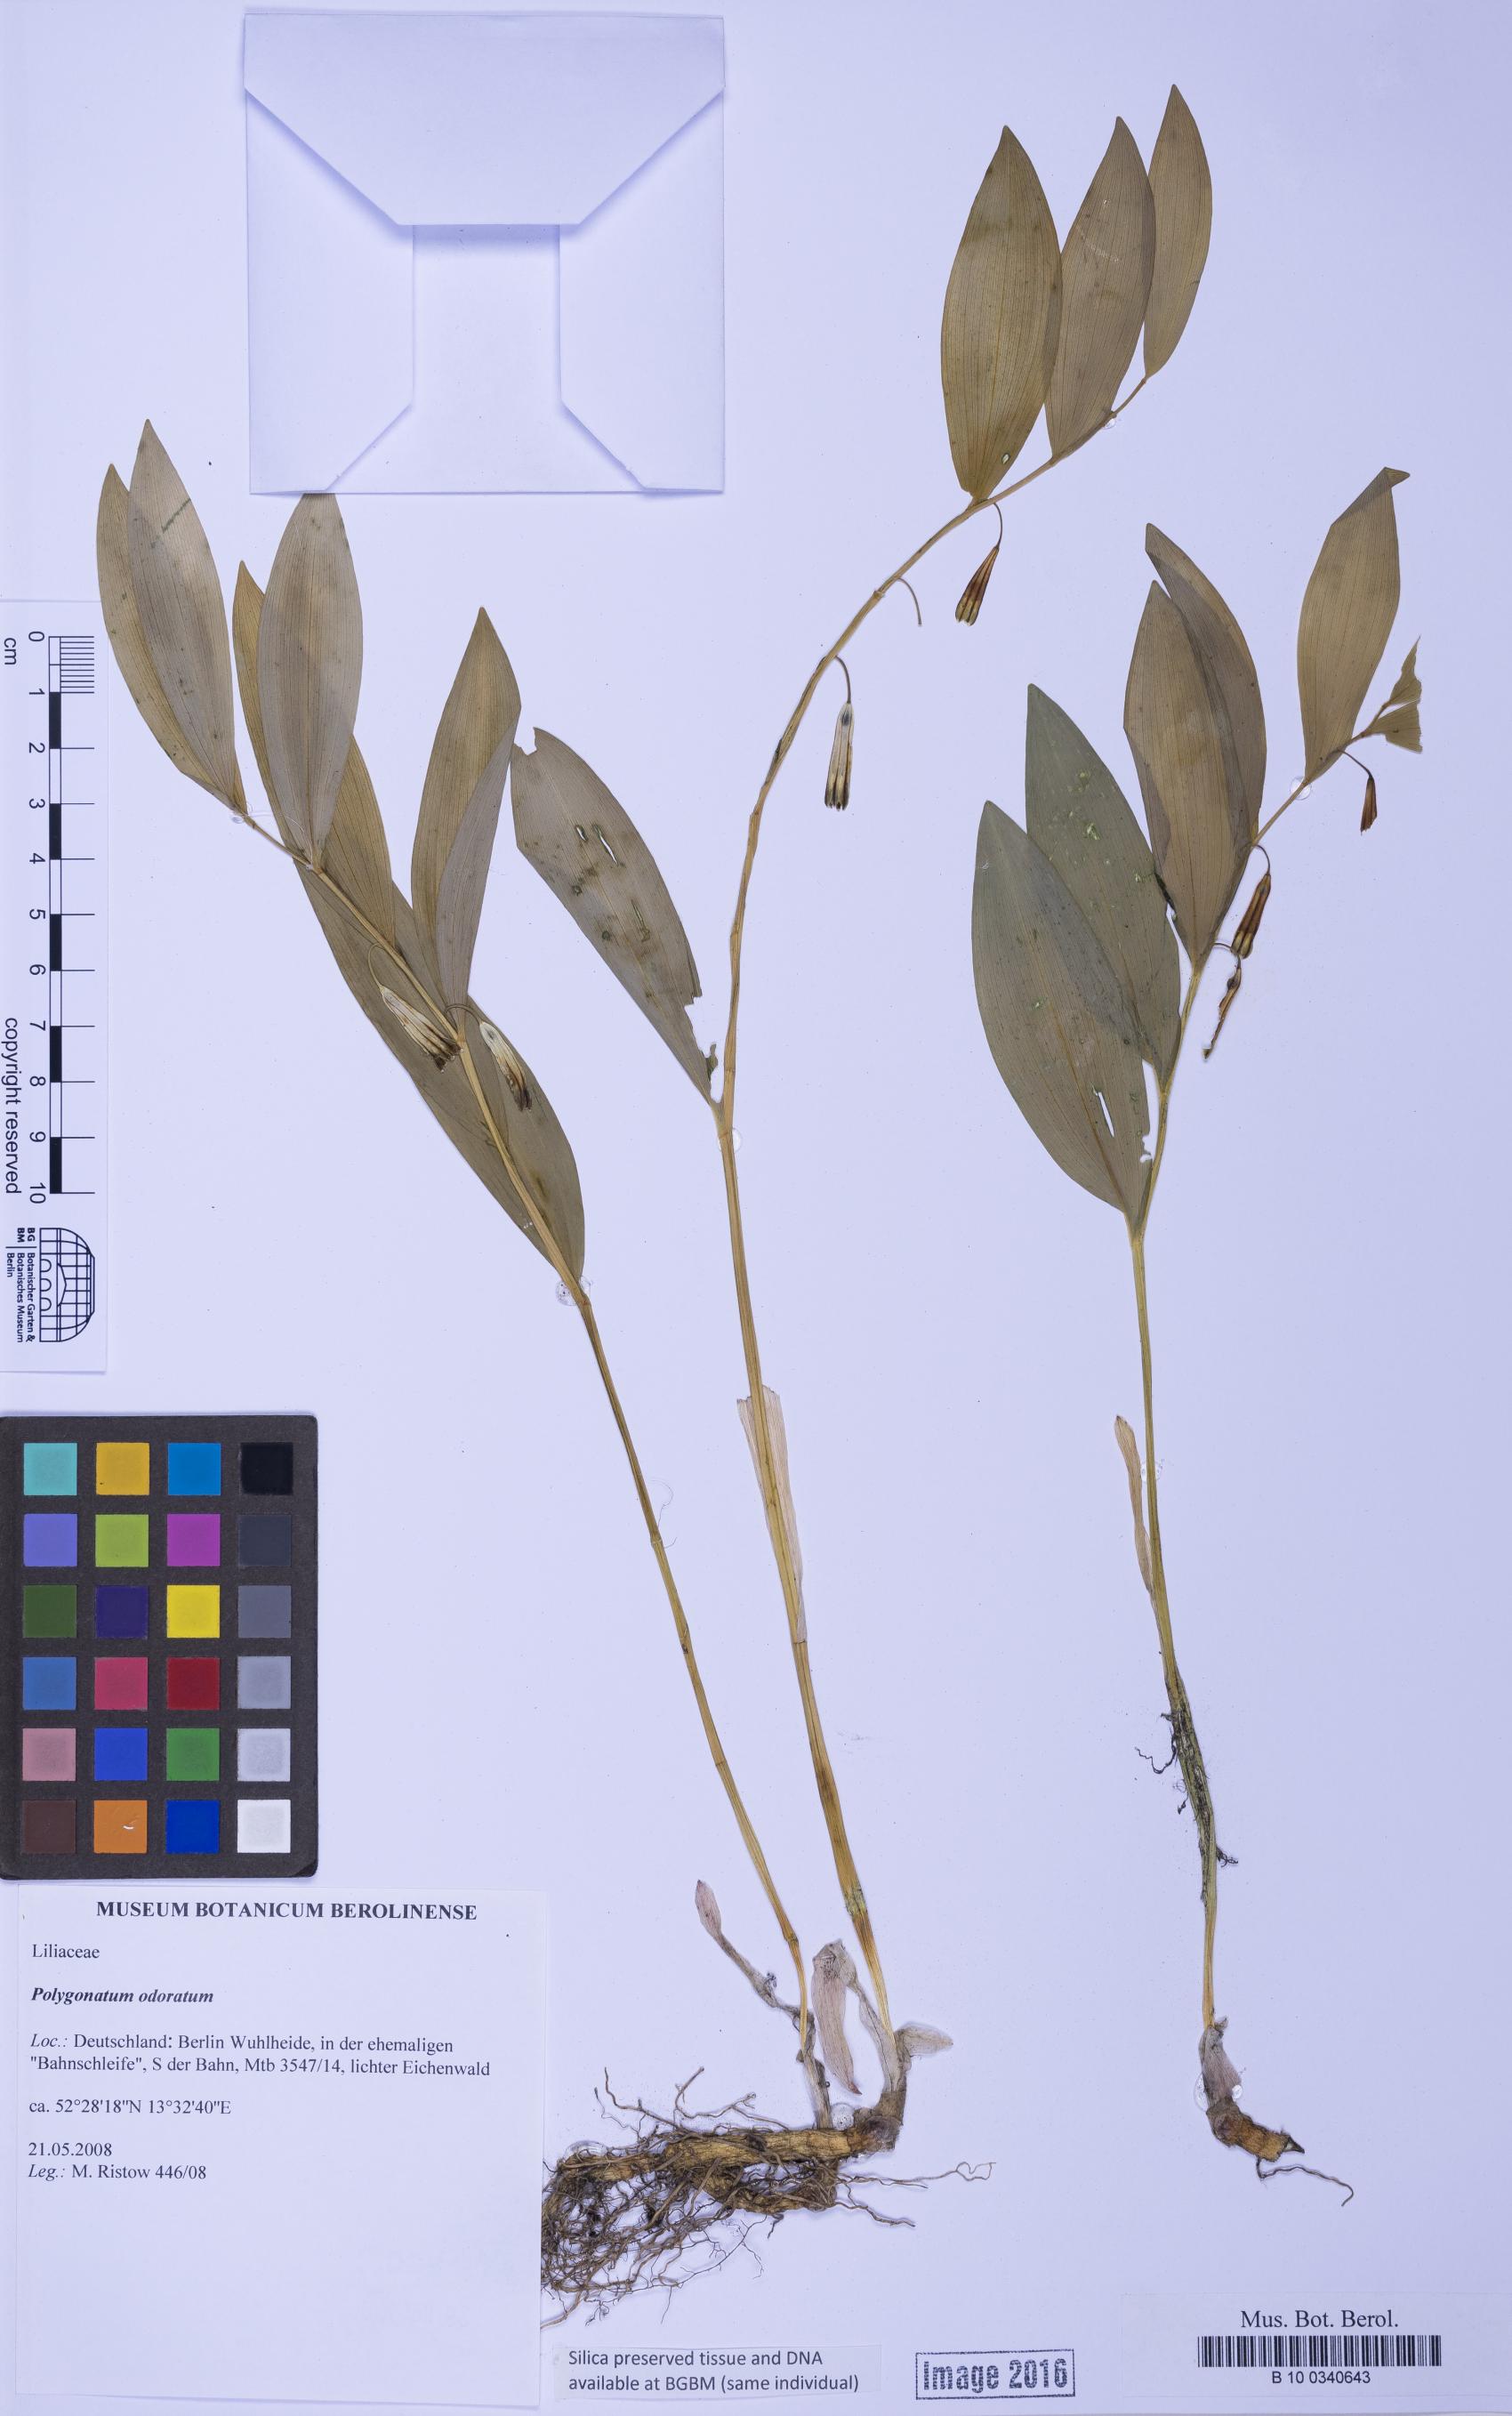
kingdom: Plantae
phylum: Tracheophyta
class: Liliopsida
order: Asparagales
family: Asparagaceae
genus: Polygonatum
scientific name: Polygonatum odoratum
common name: Angular solomon's-seal
